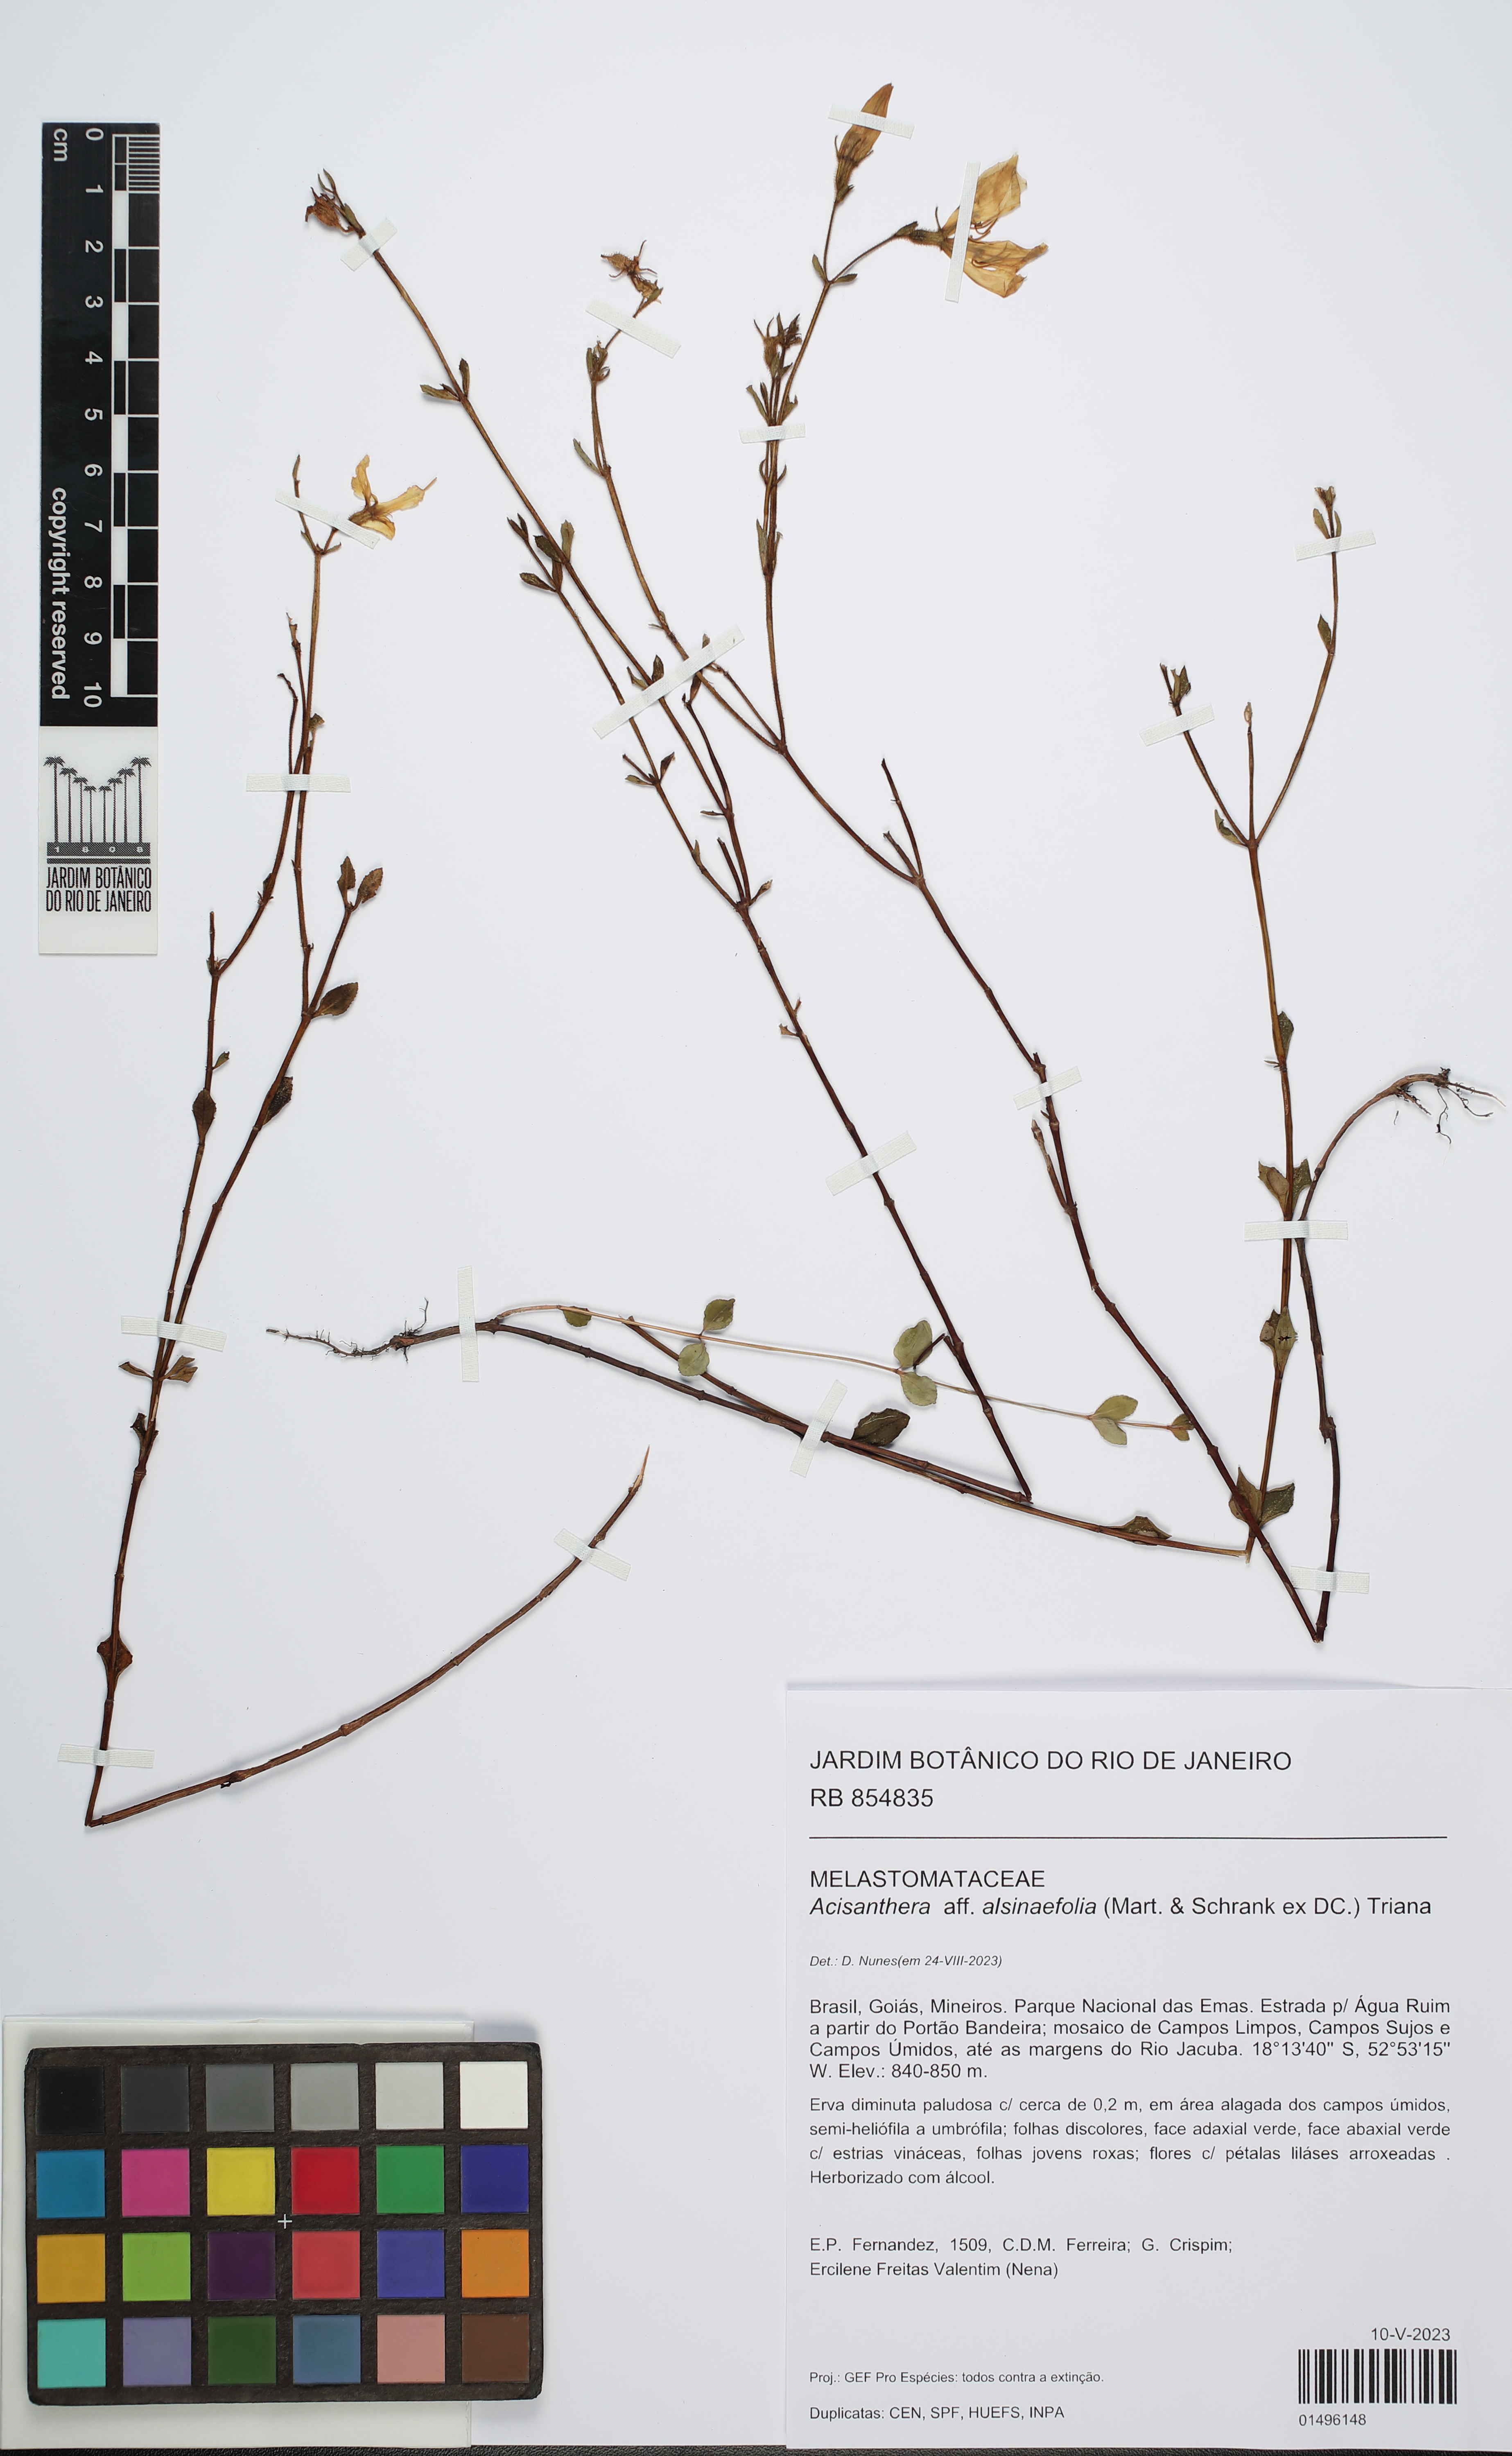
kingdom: Plantae
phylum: Tracheophyta
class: Magnoliopsida
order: Myrtales
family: Melastomataceae
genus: Acisanthera
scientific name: Acisanthera alsinaefolia
